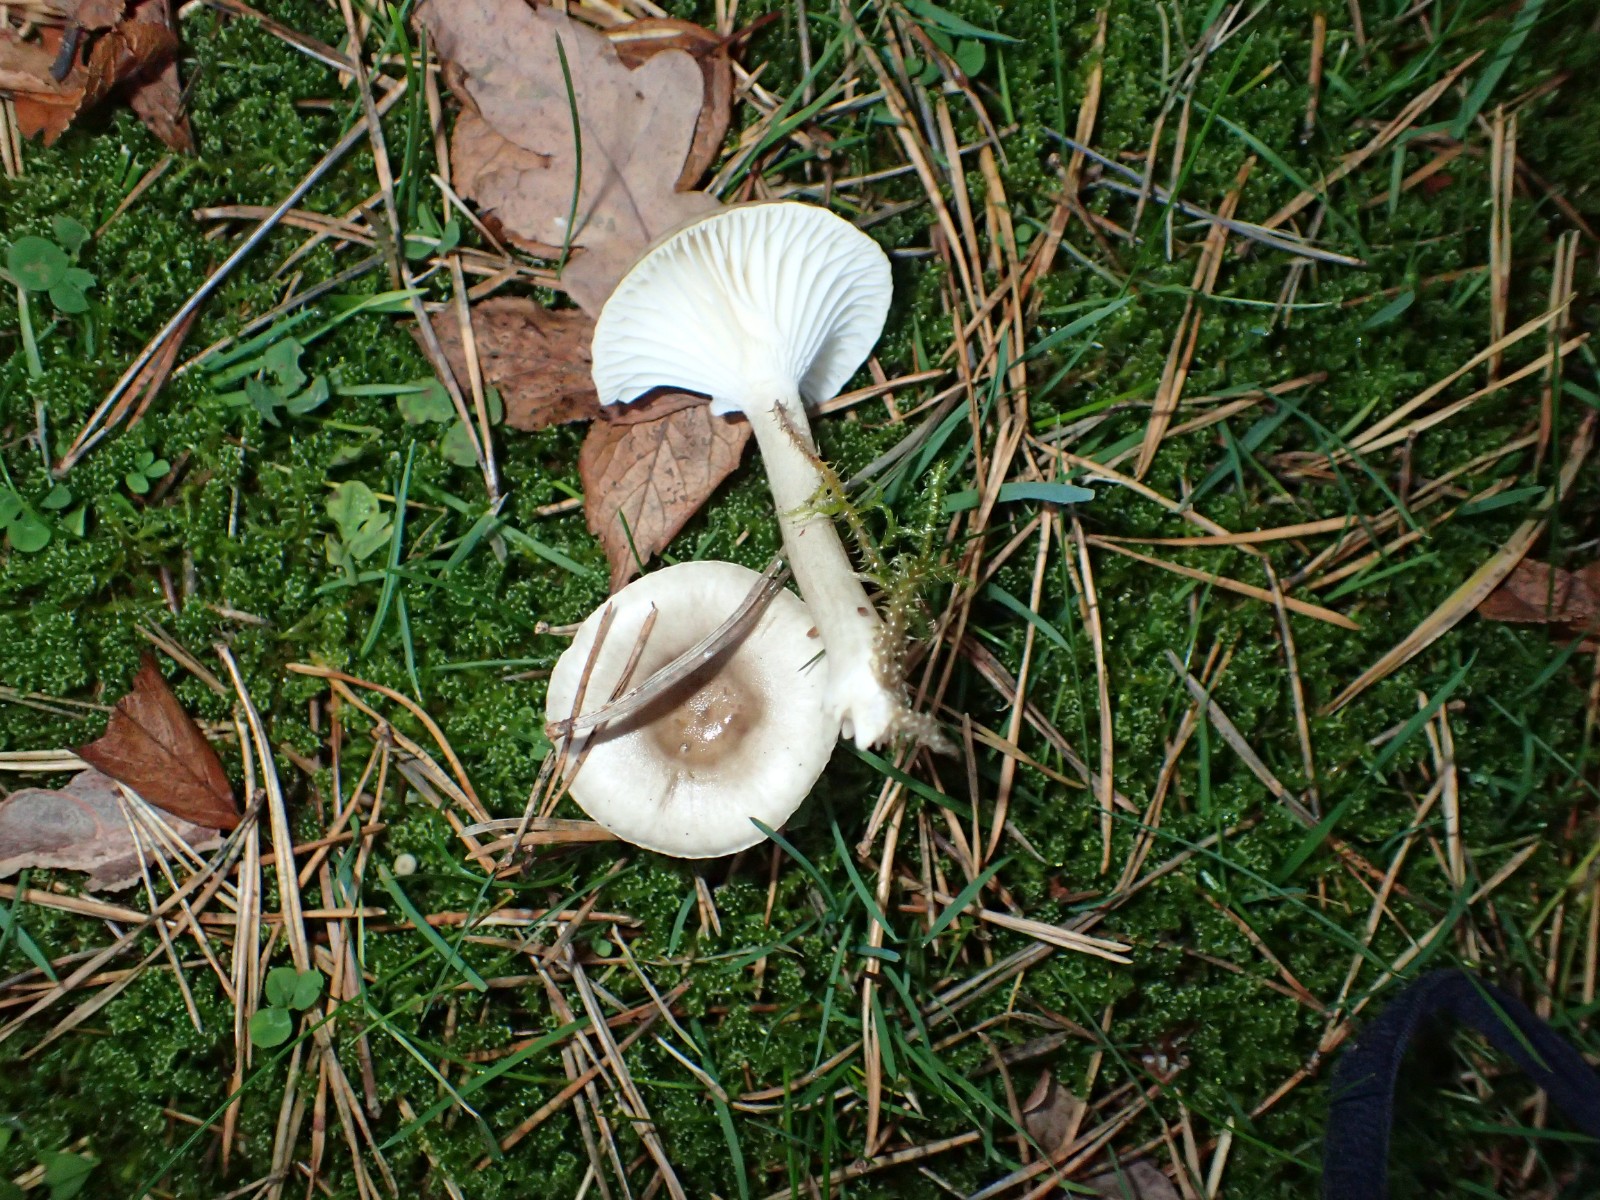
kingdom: Fungi
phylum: Basidiomycota
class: Agaricomycetes
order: Agaricales
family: Hygrophoraceae
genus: Hygrophorus
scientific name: Hygrophorus suaveolens
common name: parfumeret sneglehat
